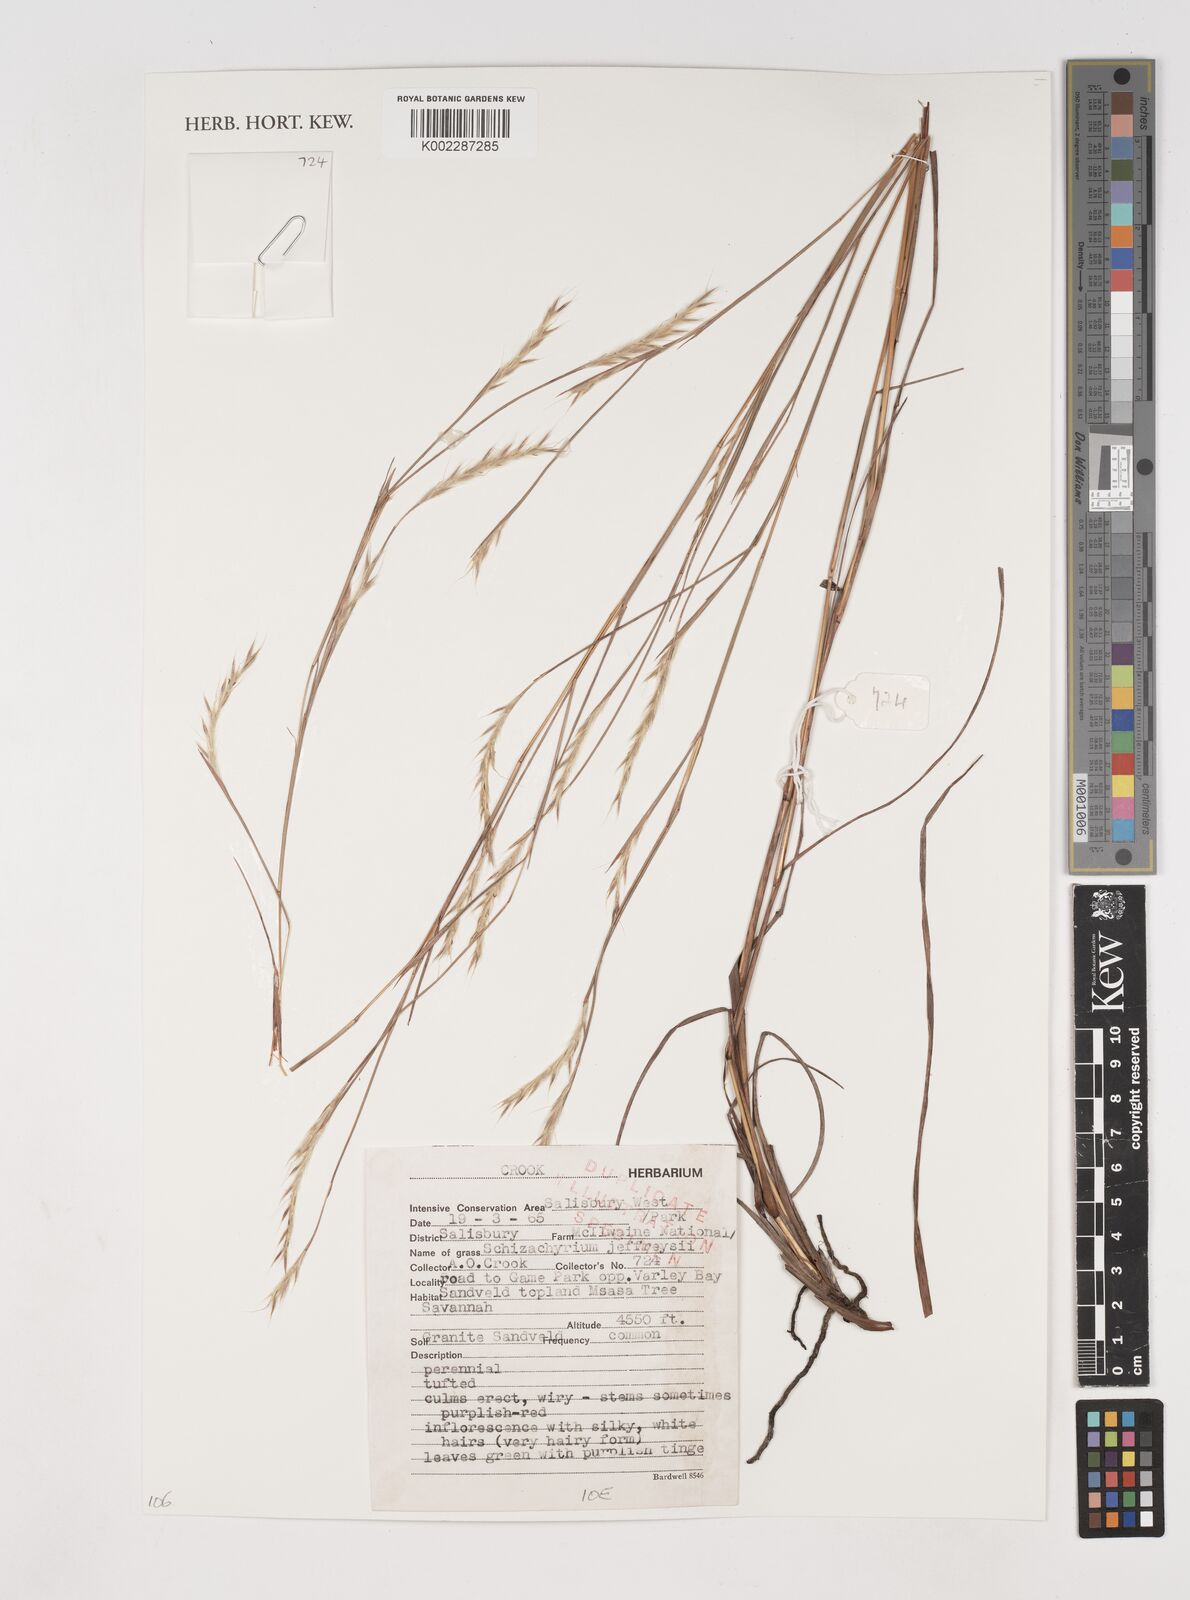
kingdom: Plantae
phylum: Tracheophyta
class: Liliopsida
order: Poales
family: Poaceae
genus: Schizachyrium
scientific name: Schizachyrium jeffreysii
